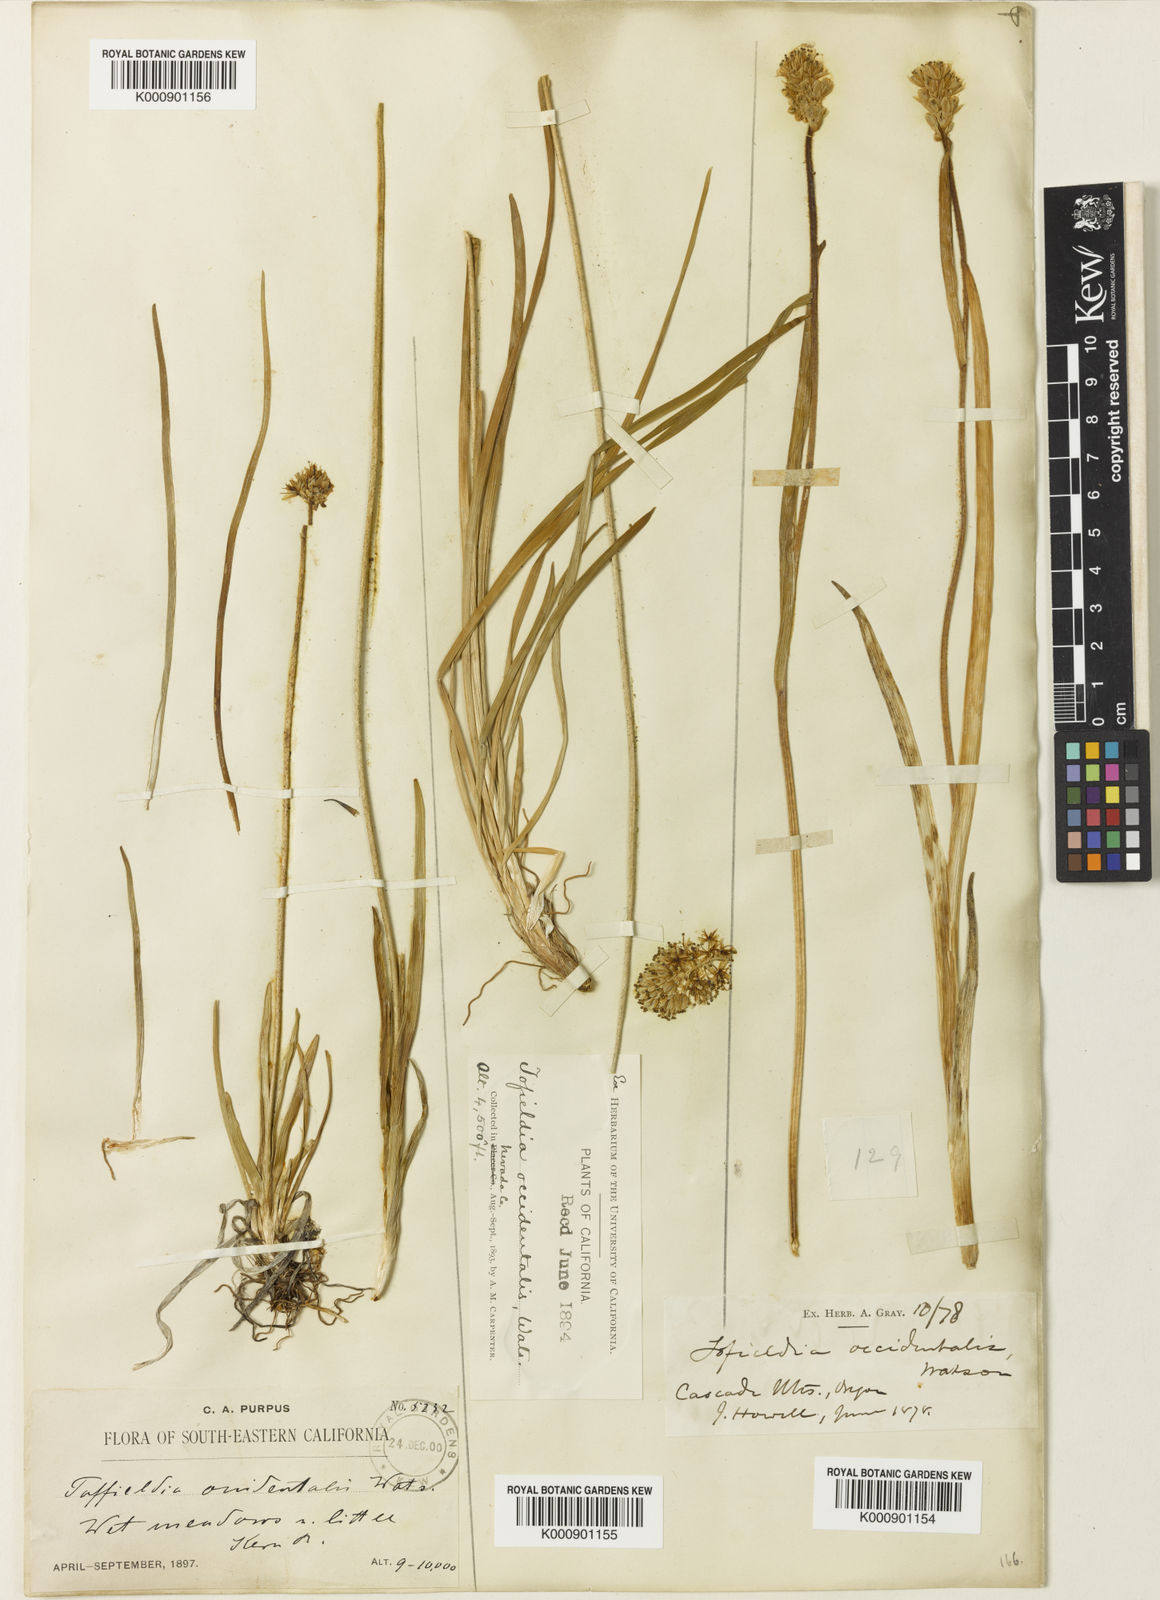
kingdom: Plantae
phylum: Tracheophyta
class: Liliopsida
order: Alismatales
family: Tofieldiaceae
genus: Triantha
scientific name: Triantha occidentalis
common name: Western false asphodel
